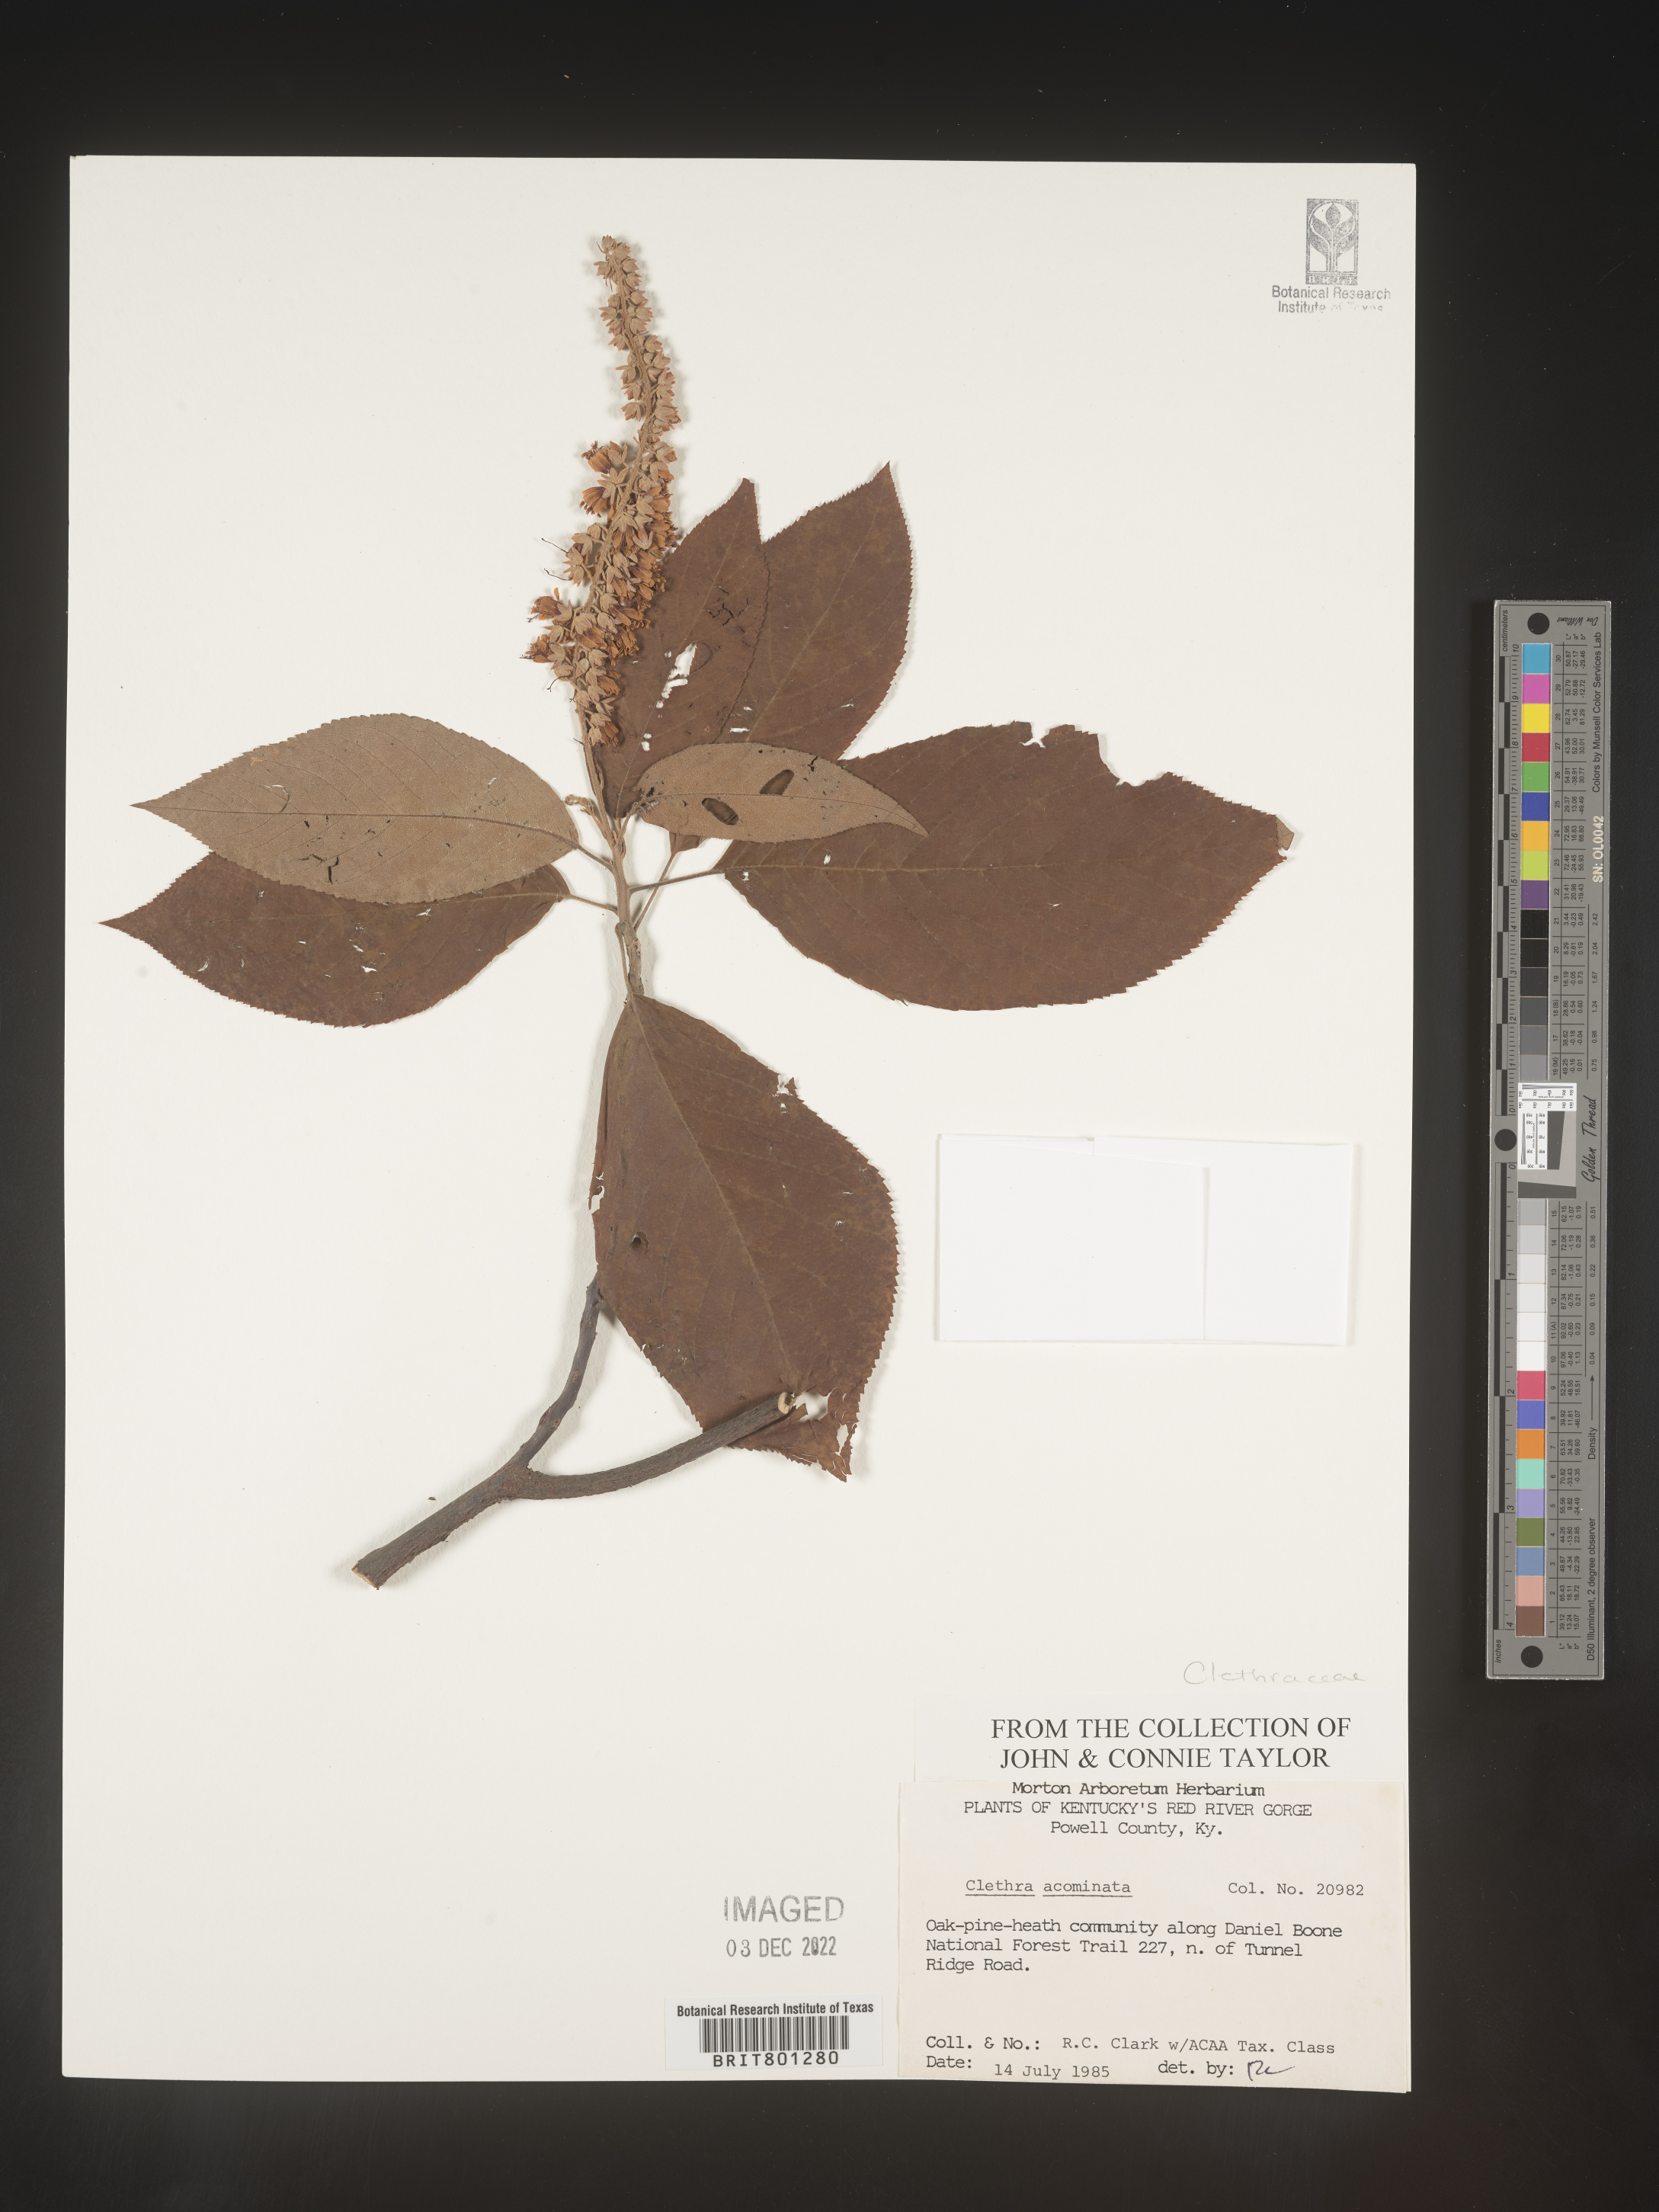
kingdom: Plantae
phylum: Tracheophyta
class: Magnoliopsida
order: Ericales
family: Clethraceae
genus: Clethra
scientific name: Clethra acuminata
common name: Mountain sweet pepperbush
